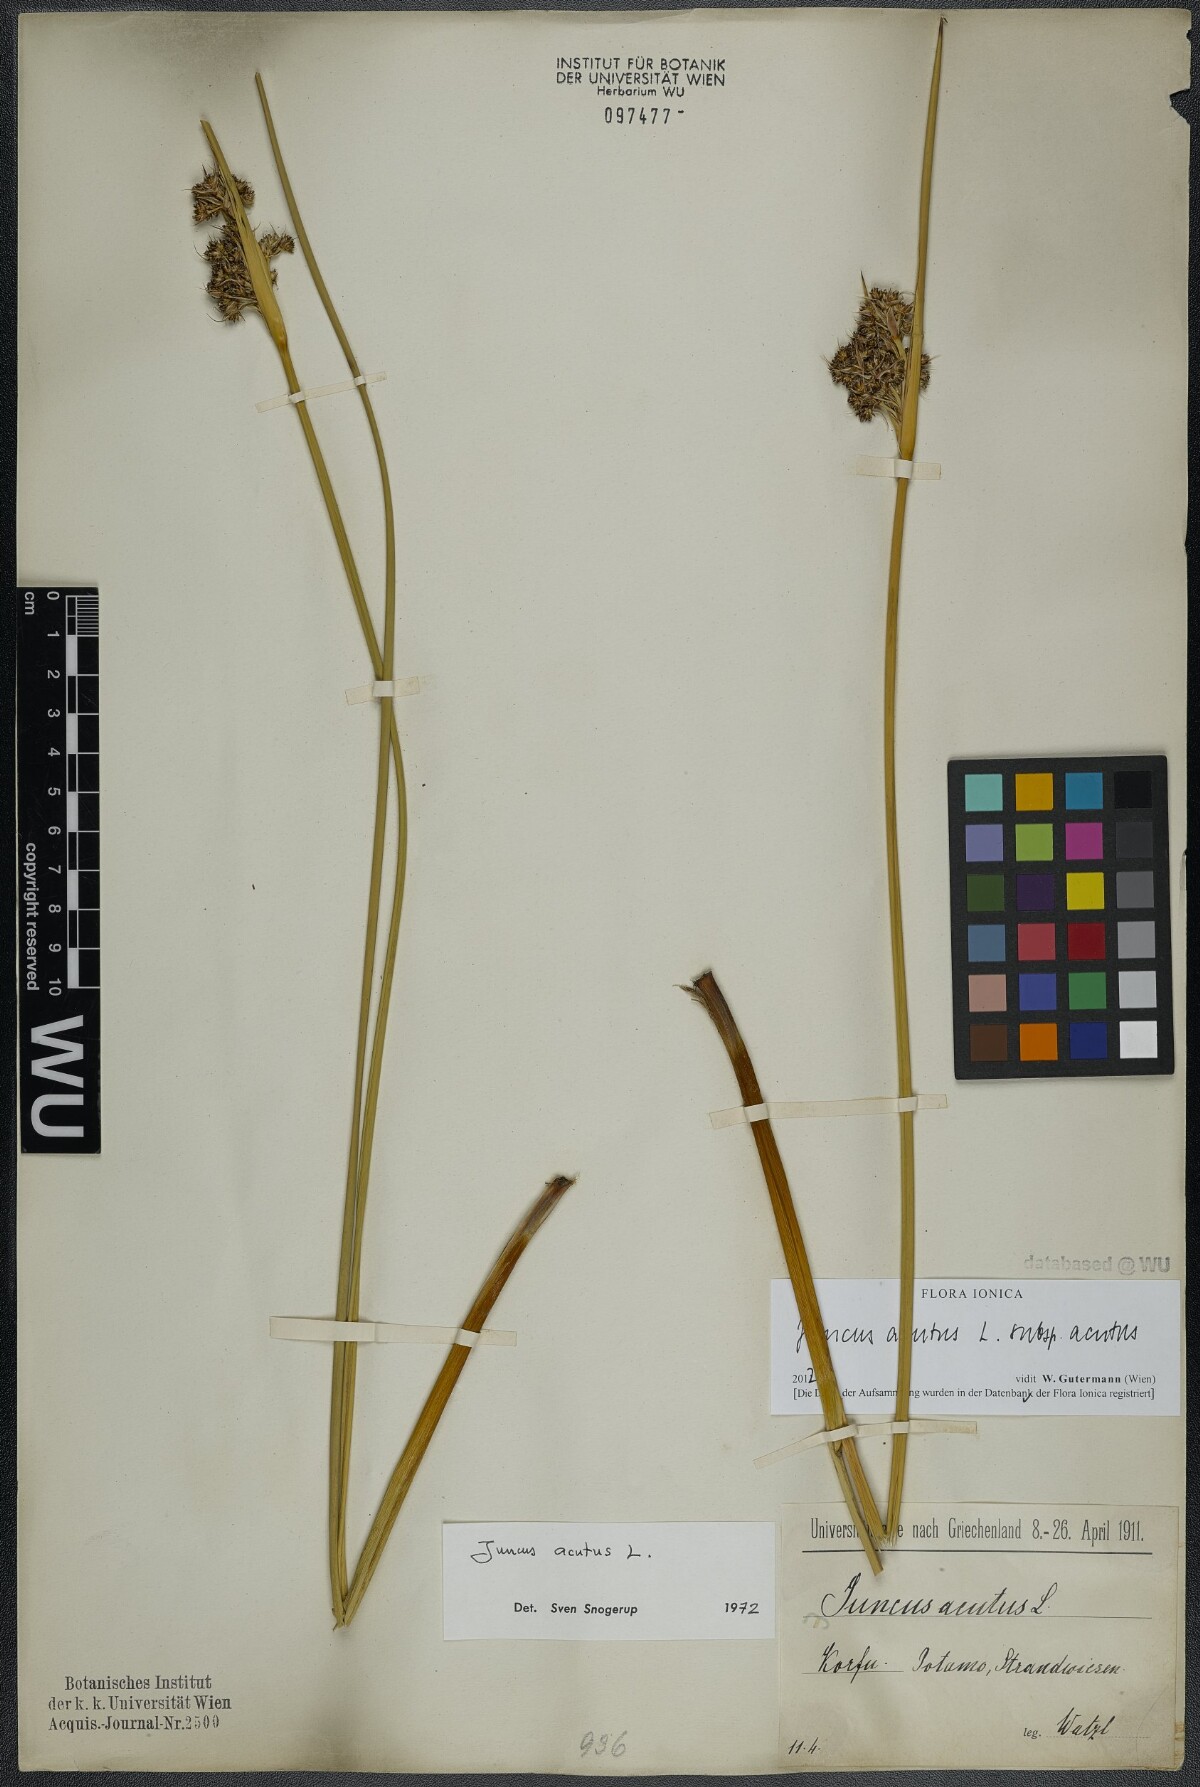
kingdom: Plantae
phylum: Tracheophyta
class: Liliopsida
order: Poales
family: Juncaceae
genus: Juncus
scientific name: Juncus acutus
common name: Sharp rush
